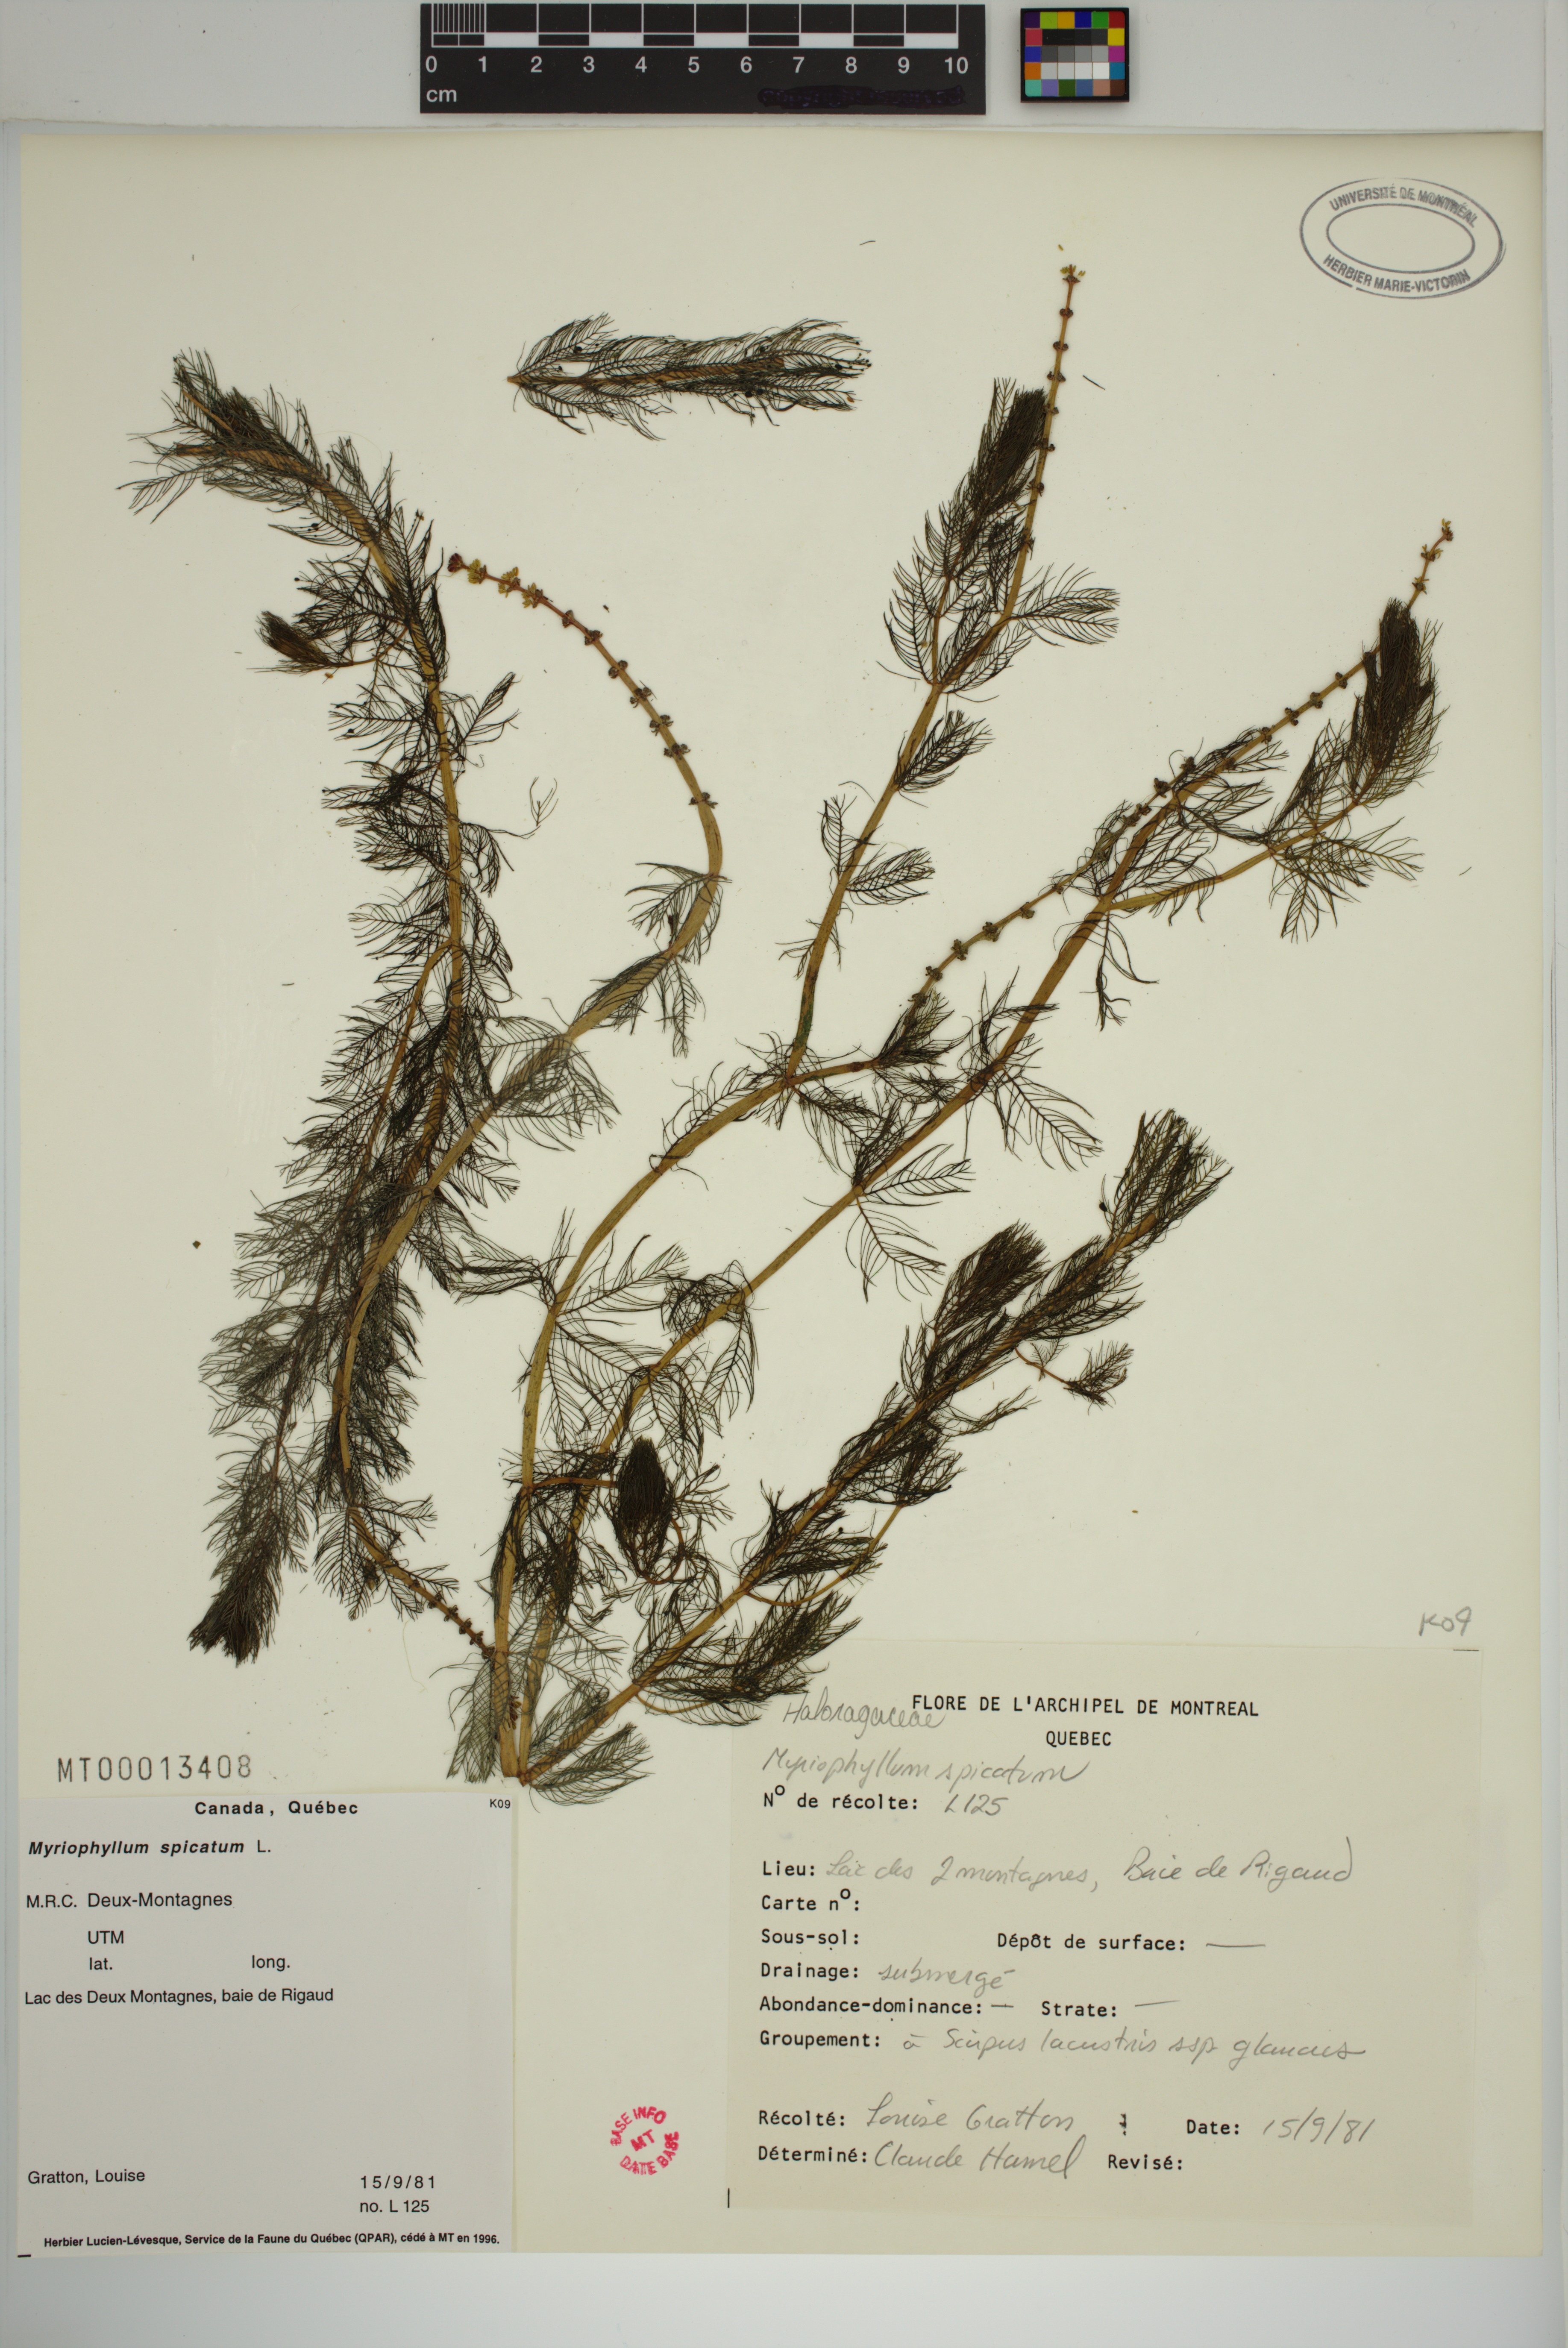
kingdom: Plantae
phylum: Tracheophyta
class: Magnoliopsida
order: Saxifragales
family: Haloragaceae
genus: Myriophyllum
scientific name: Myriophyllum spicatum
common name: Spiked water-milfoil
